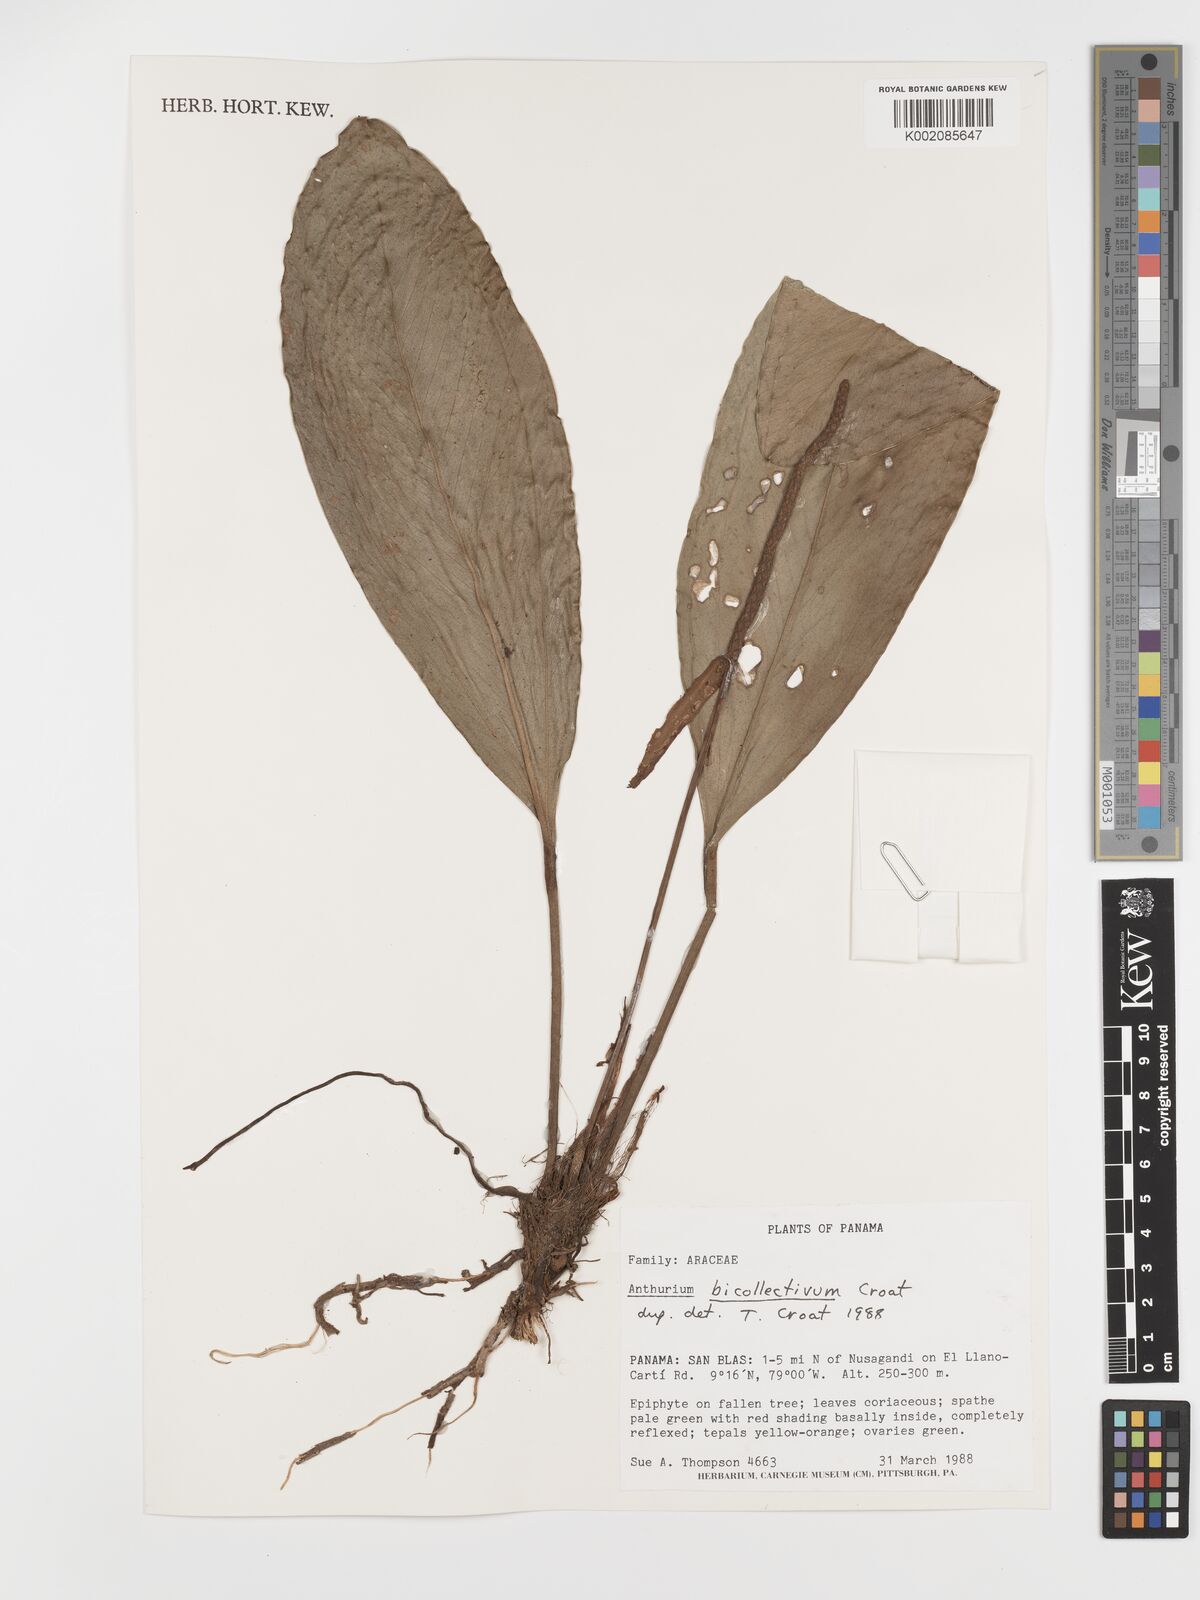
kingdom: Plantae
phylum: Tracheophyta
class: Liliopsida
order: Alismatales
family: Araceae
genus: Anthurium
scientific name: Anthurium durandii
